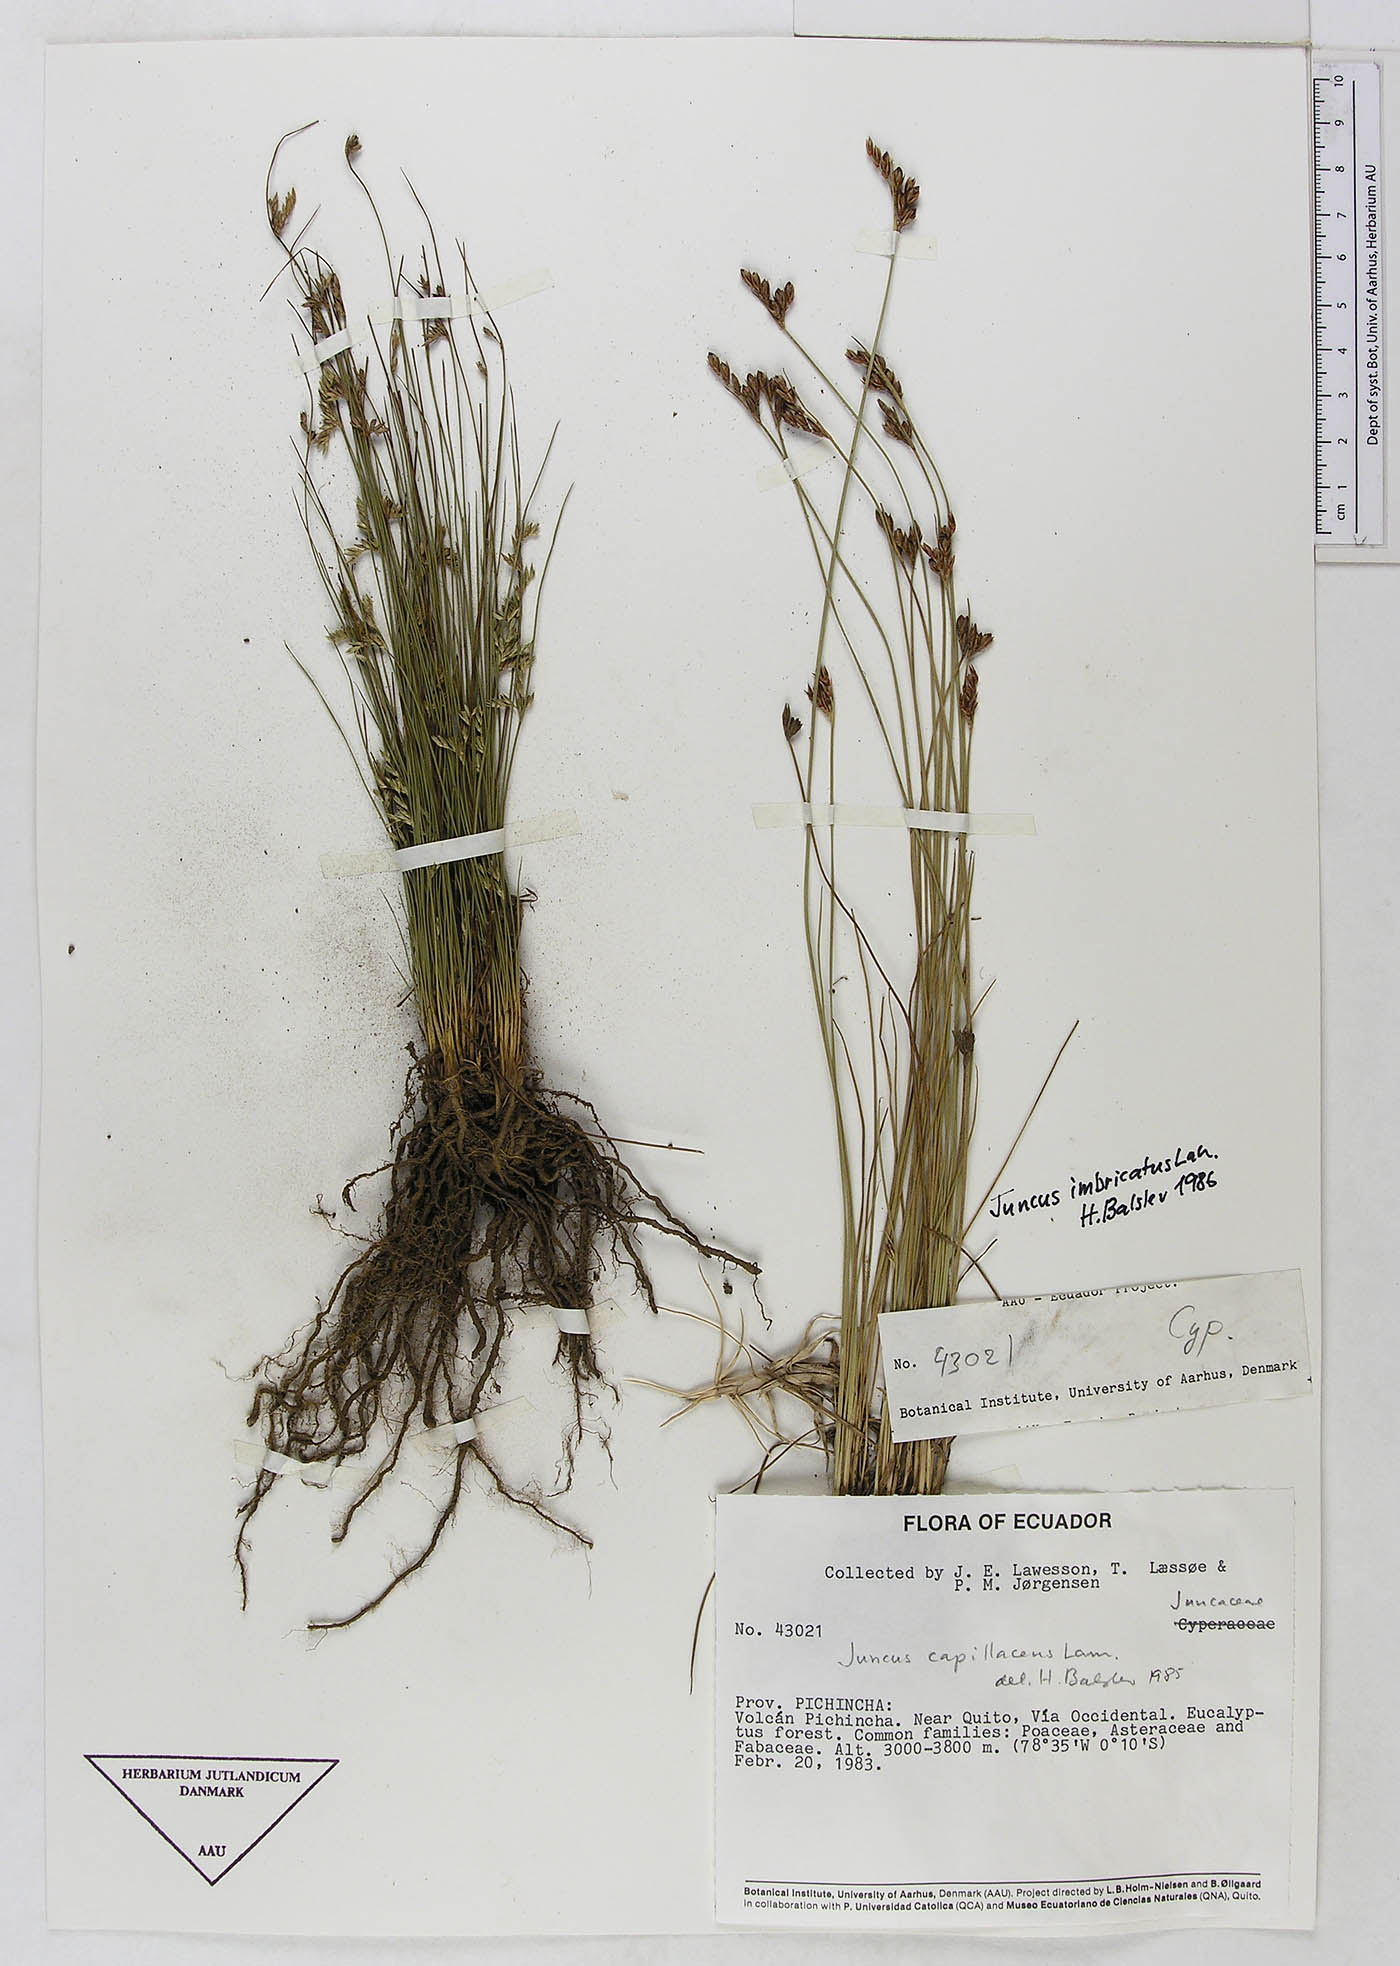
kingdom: Plantae
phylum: Tracheophyta
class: Liliopsida
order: Poales
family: Juncaceae
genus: Juncus
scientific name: Juncus capillaceus
